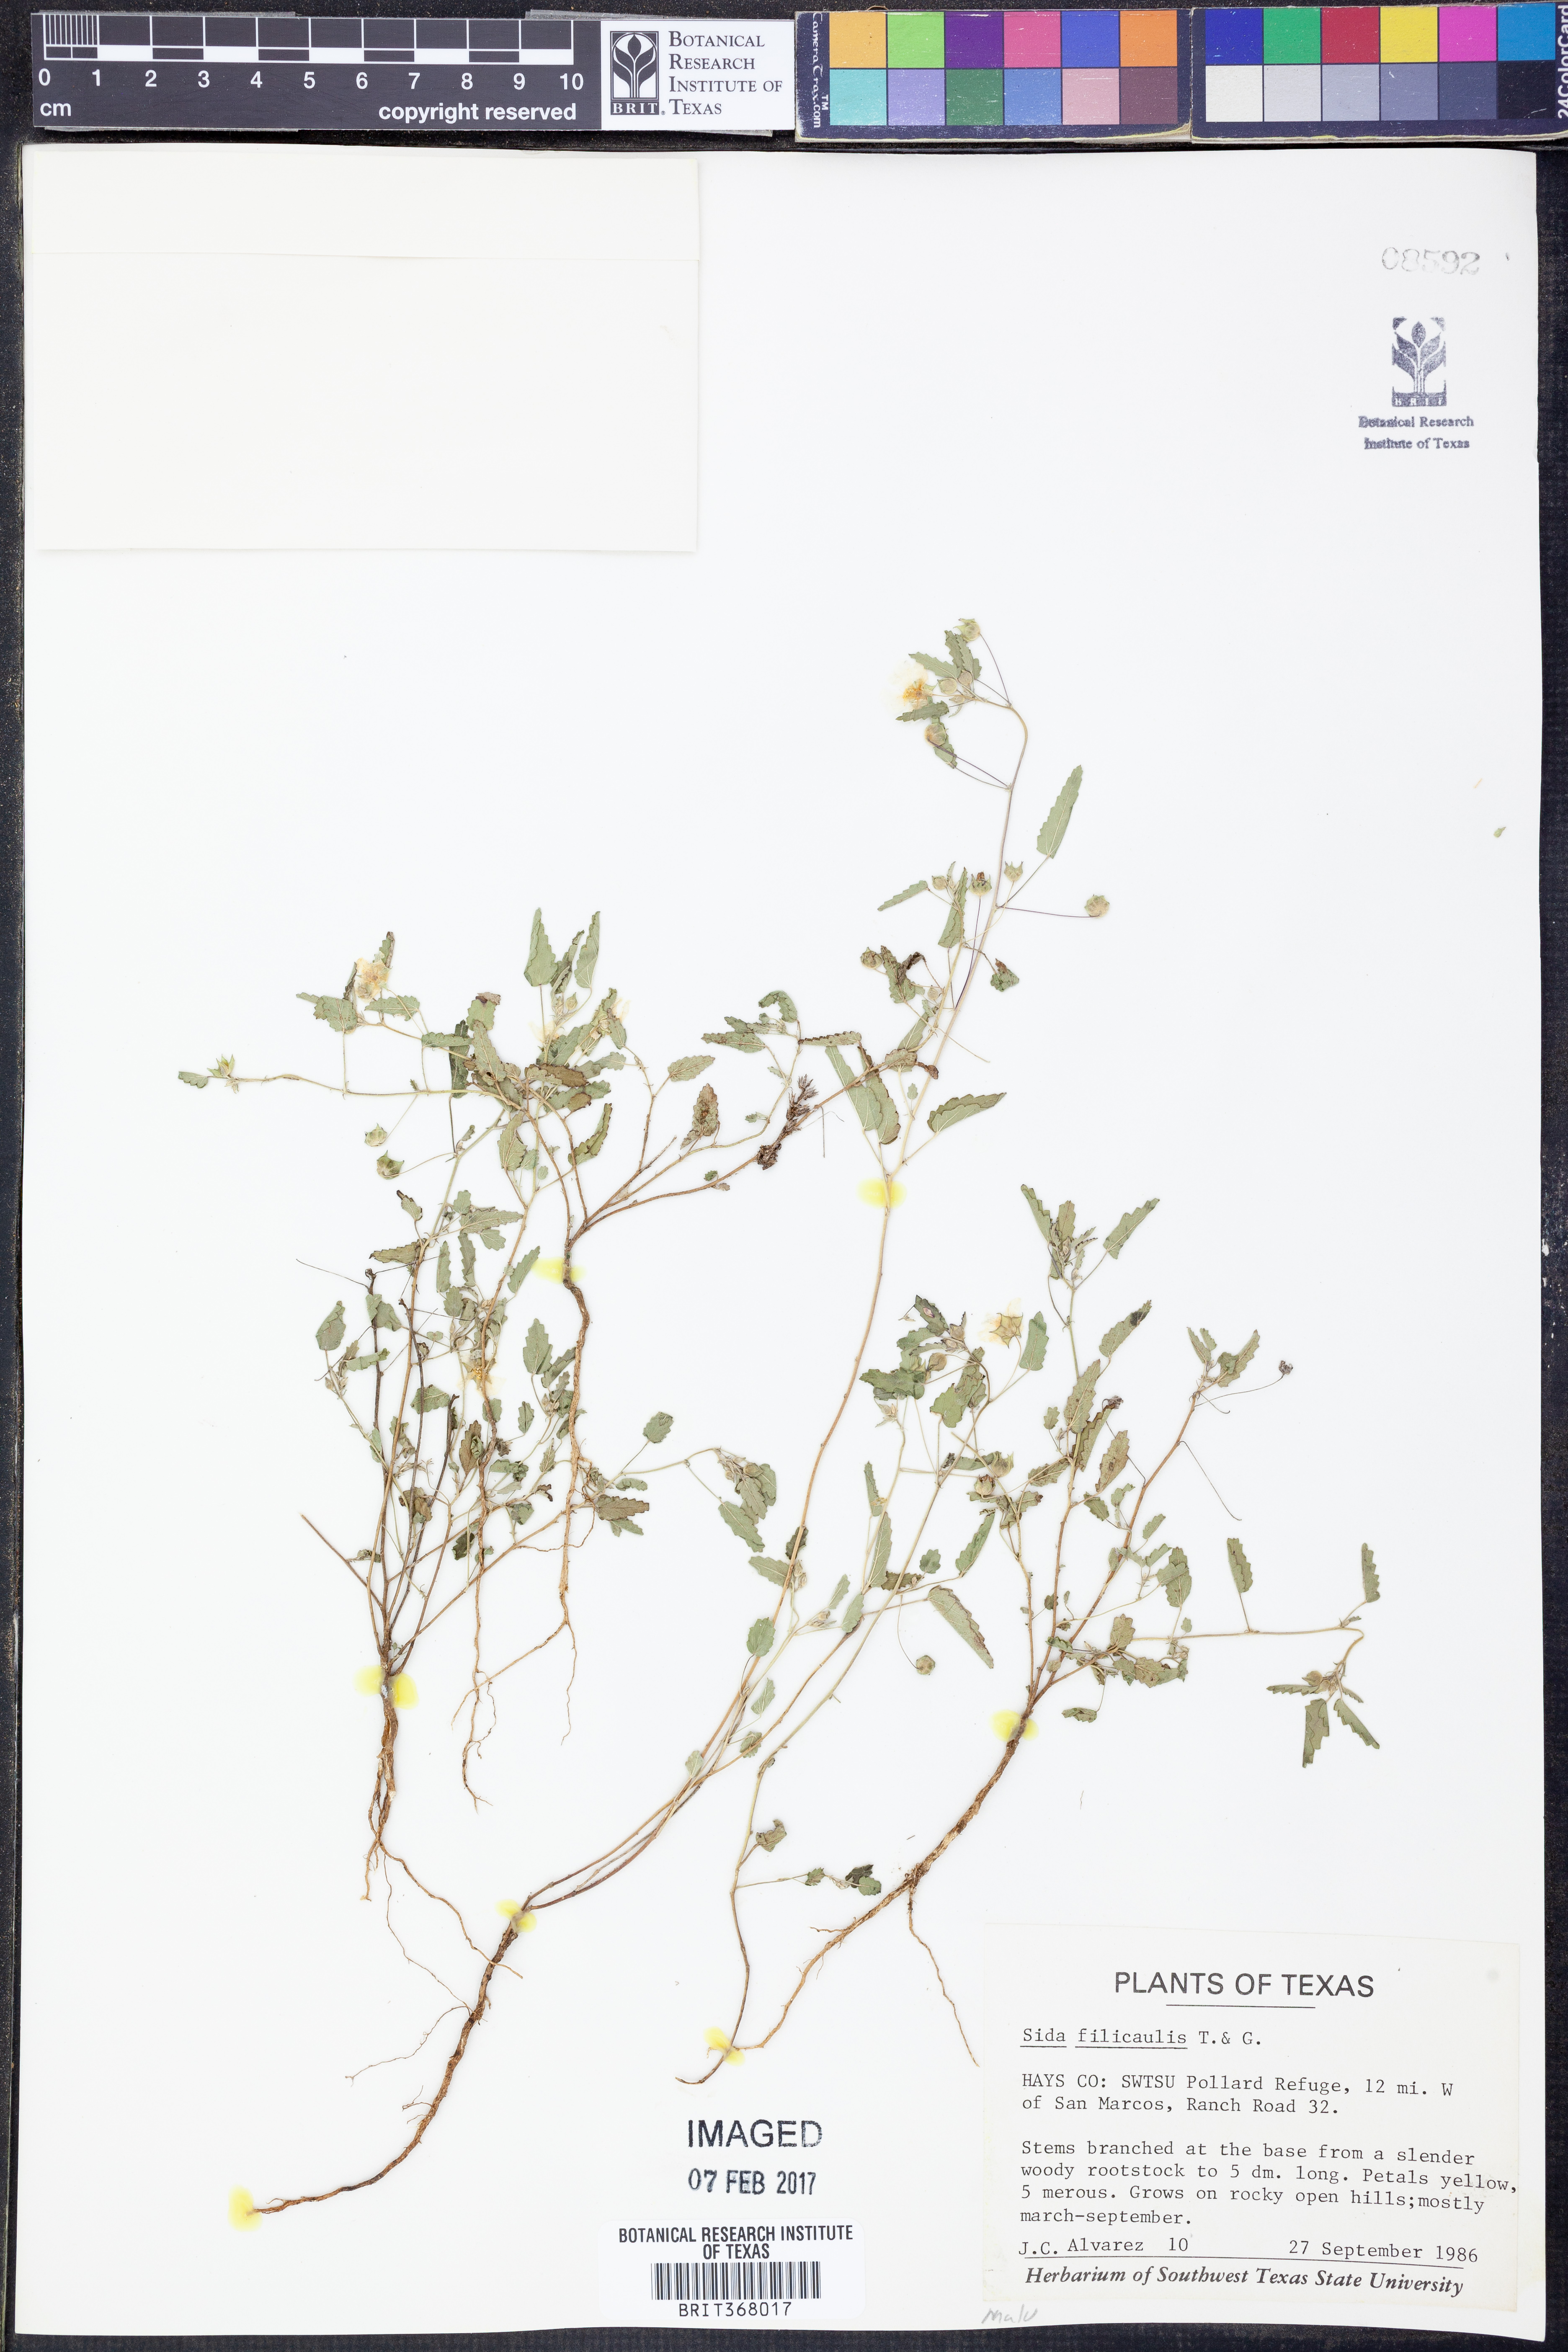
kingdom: Plantae
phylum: Tracheophyta
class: Magnoliopsida
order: Malvales
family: Malvaceae
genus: Sida
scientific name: Sida abutilifolia
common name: Spreading fanpetals
